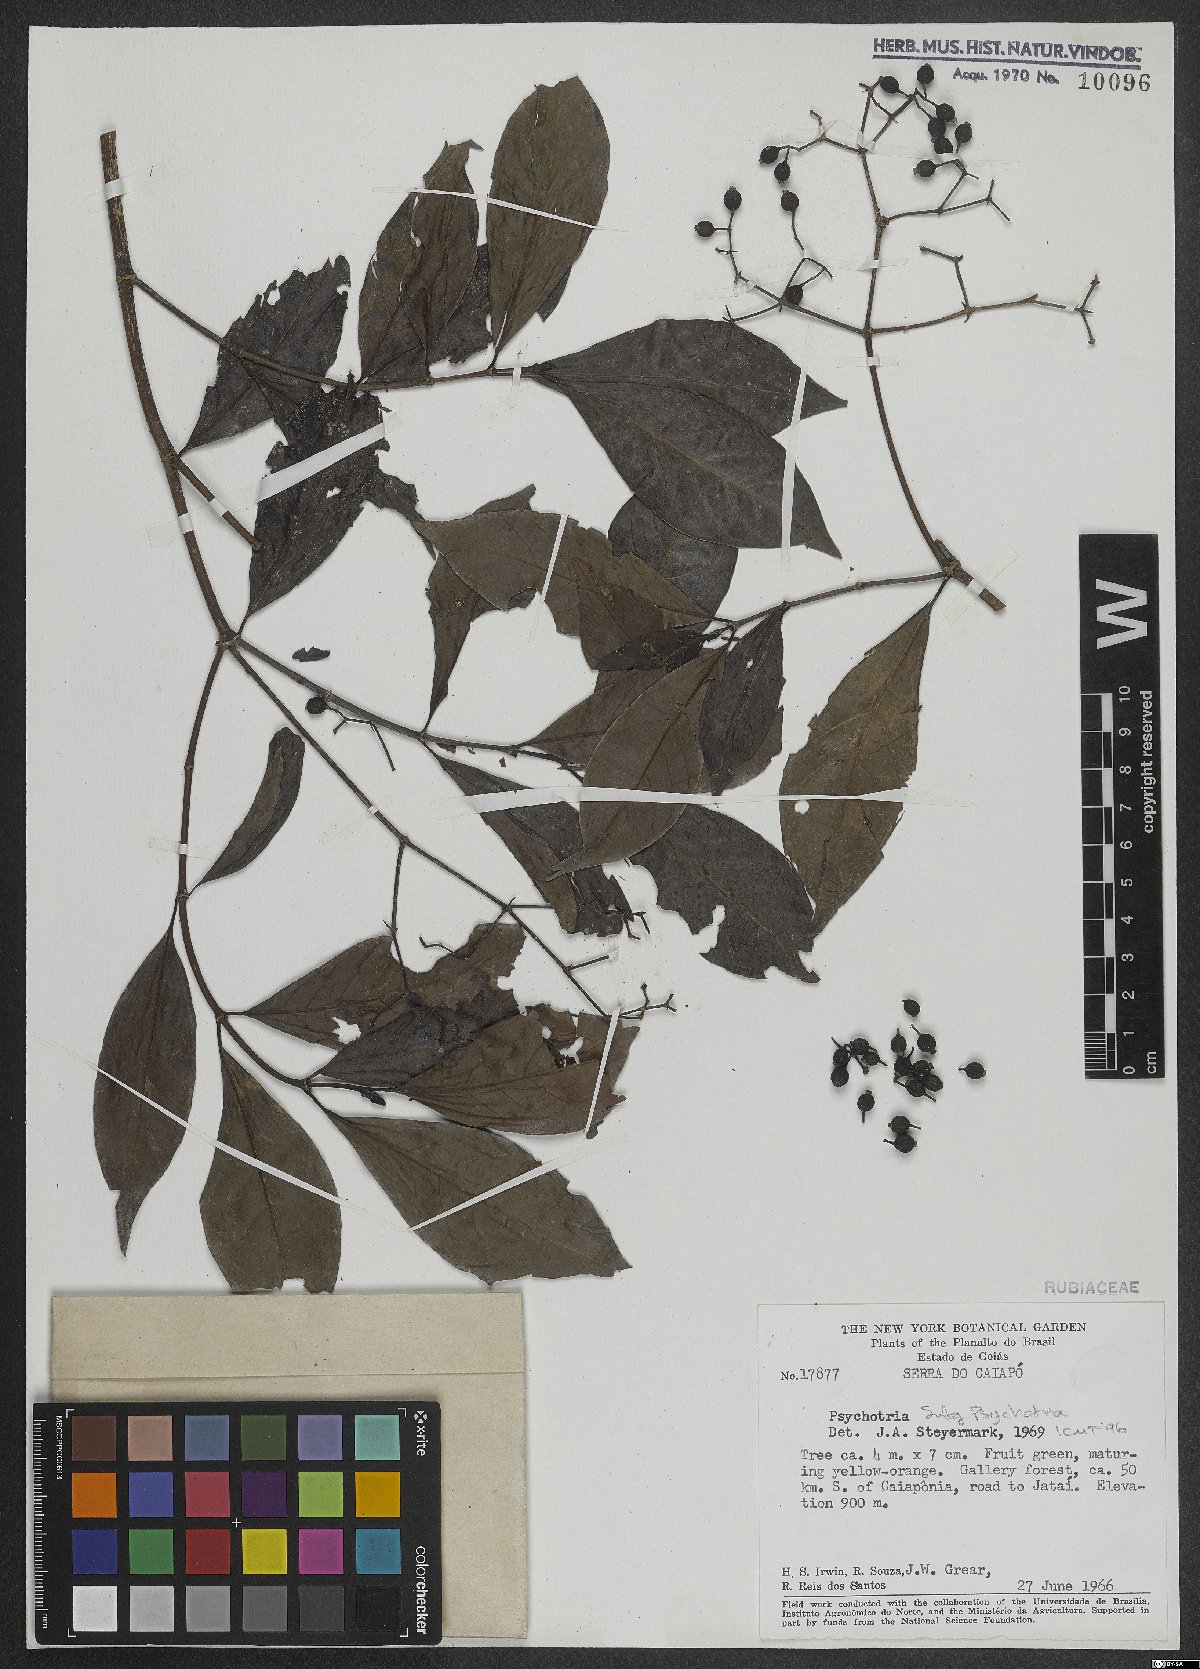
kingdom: Plantae
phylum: Tracheophyta
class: Magnoliopsida
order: Gentianales
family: Rubiaceae
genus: Psychotria
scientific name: Psychotria
